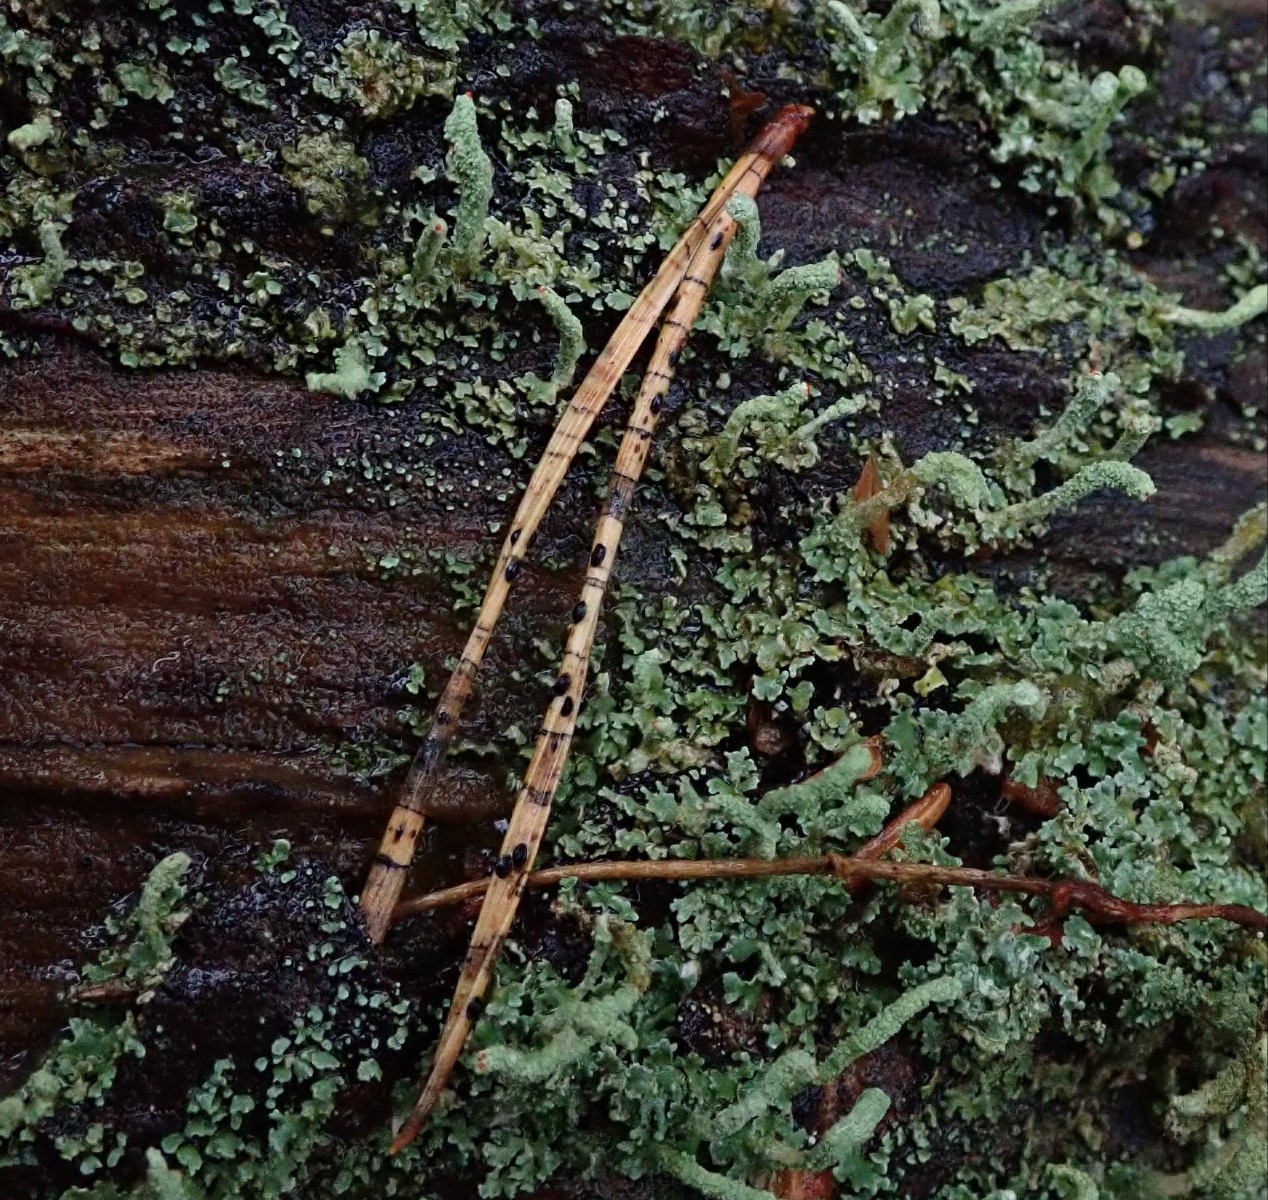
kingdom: Fungi
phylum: Ascomycota
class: Leotiomycetes
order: Rhytismatales
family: Rhytismataceae
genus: Lophodermium
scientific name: Lophodermium pinastri
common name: fyrre-fureplet
